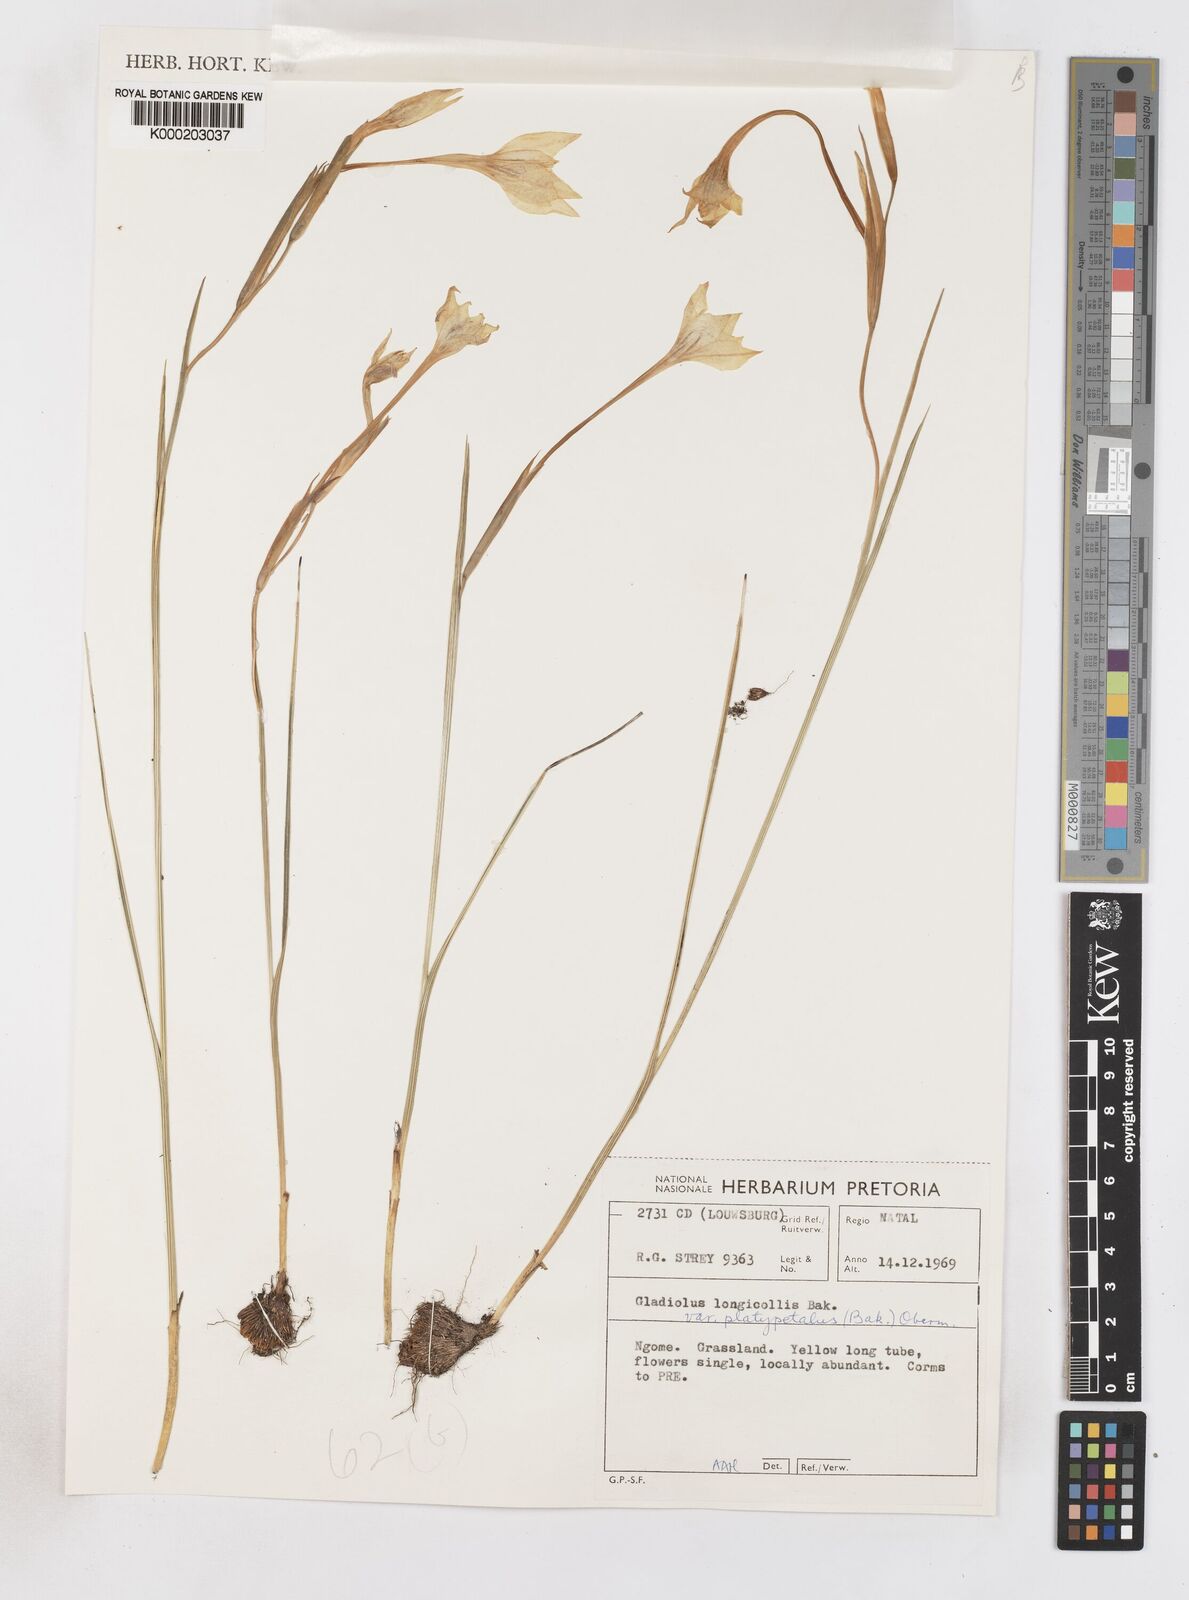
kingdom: Plantae
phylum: Tracheophyta
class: Liliopsida
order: Asparagales
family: Iridaceae
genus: Gladiolus
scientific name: Gladiolus longicollis
